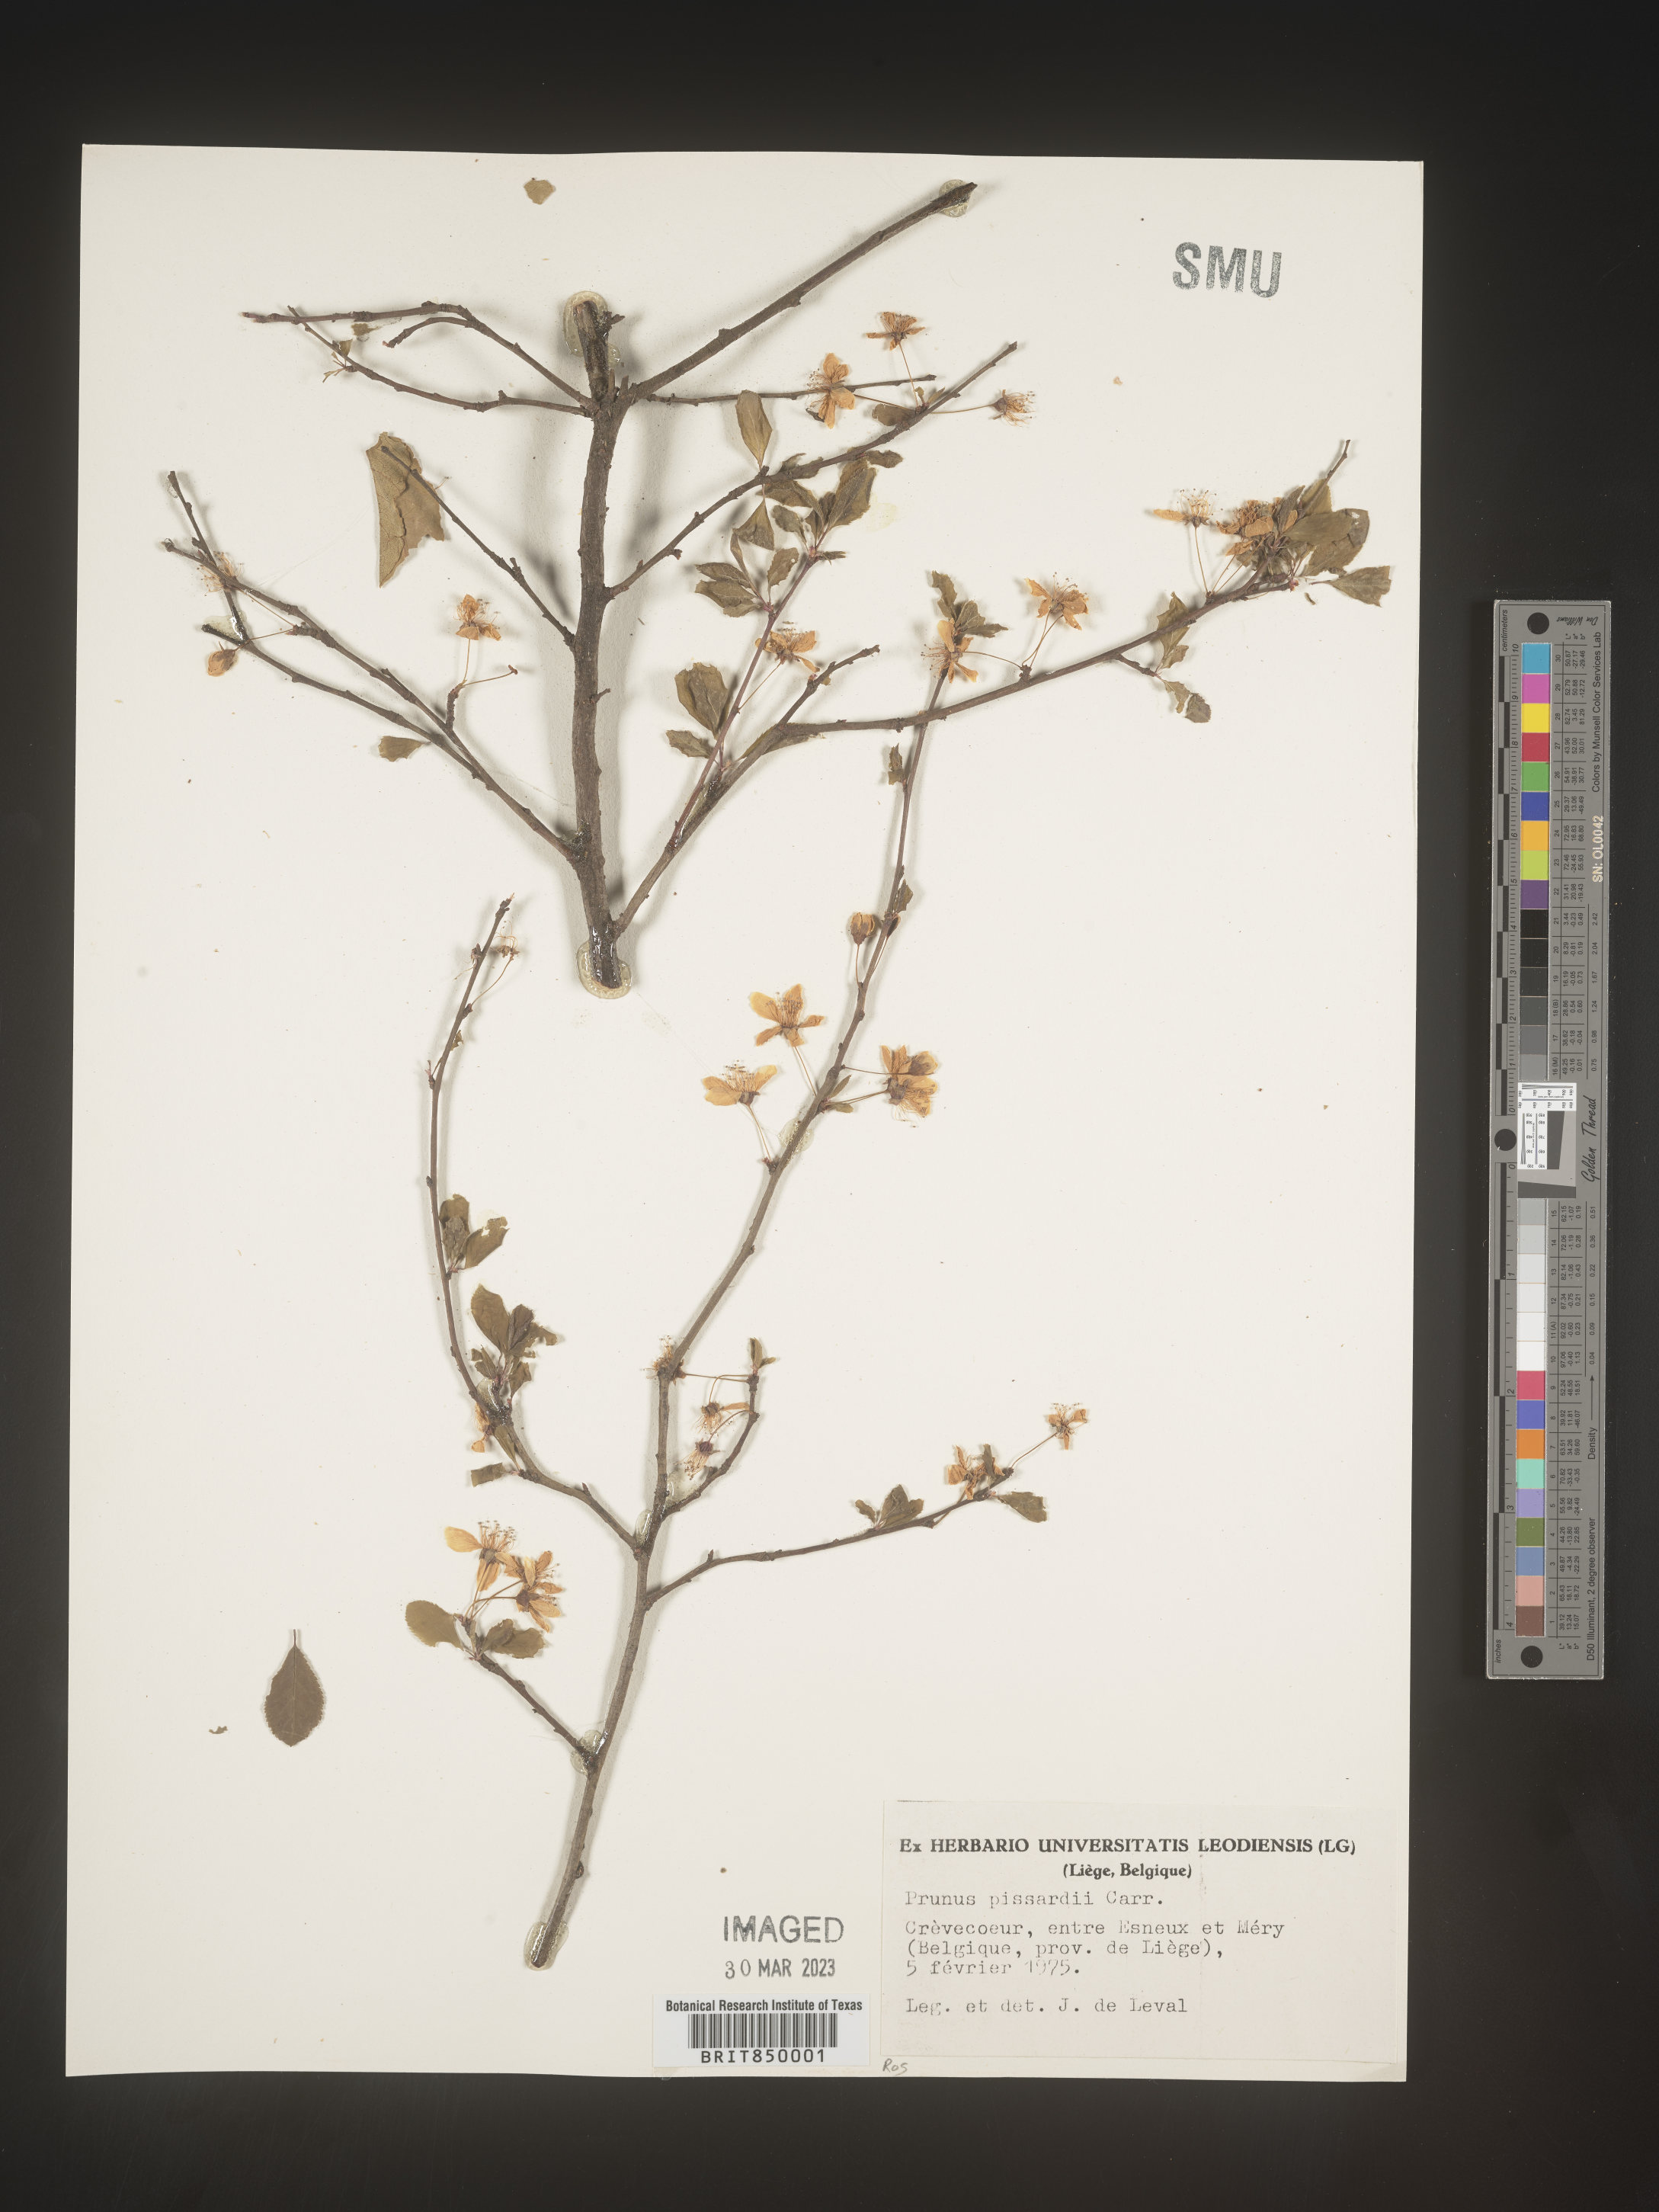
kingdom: Plantae
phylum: Tracheophyta
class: Magnoliopsida
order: Rosales
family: Rosaceae
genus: Prunus
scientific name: Prunus
